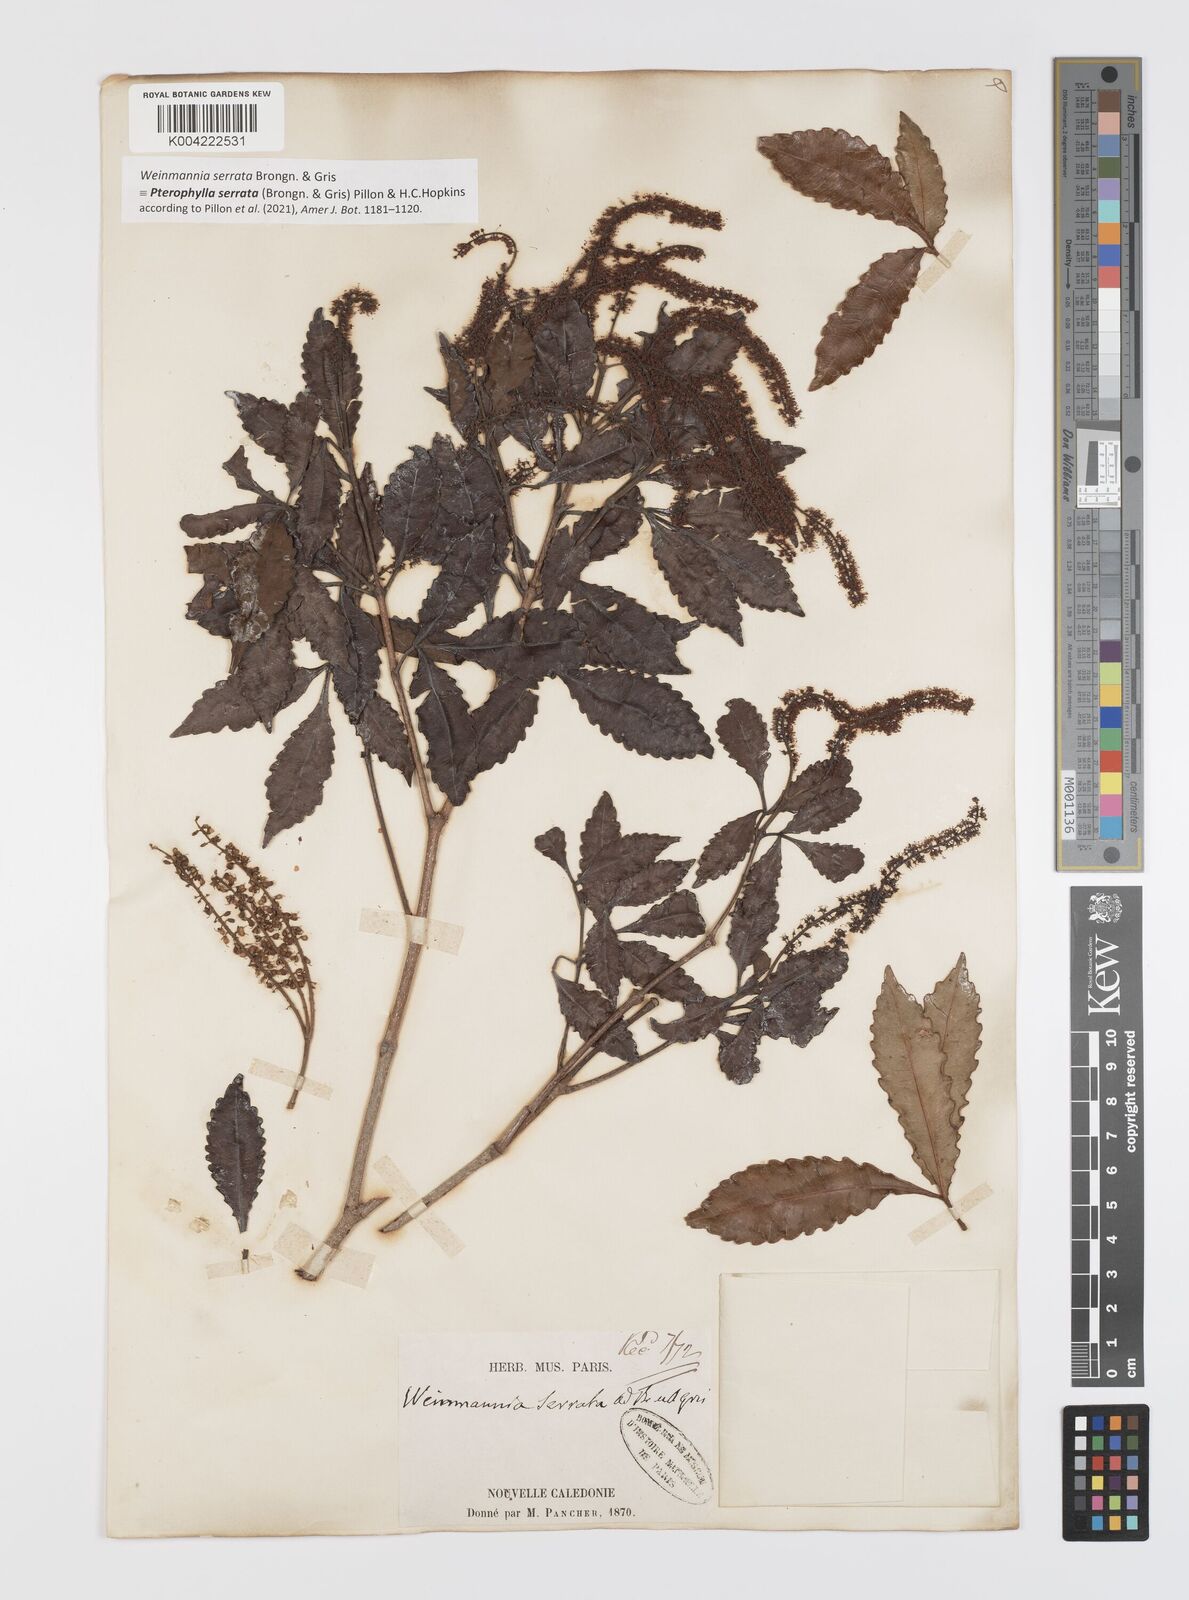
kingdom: Plantae
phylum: Tracheophyta
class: Magnoliopsida
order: Oxalidales
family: Cunoniaceae
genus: Pterophylla
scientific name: Pterophylla serrata
